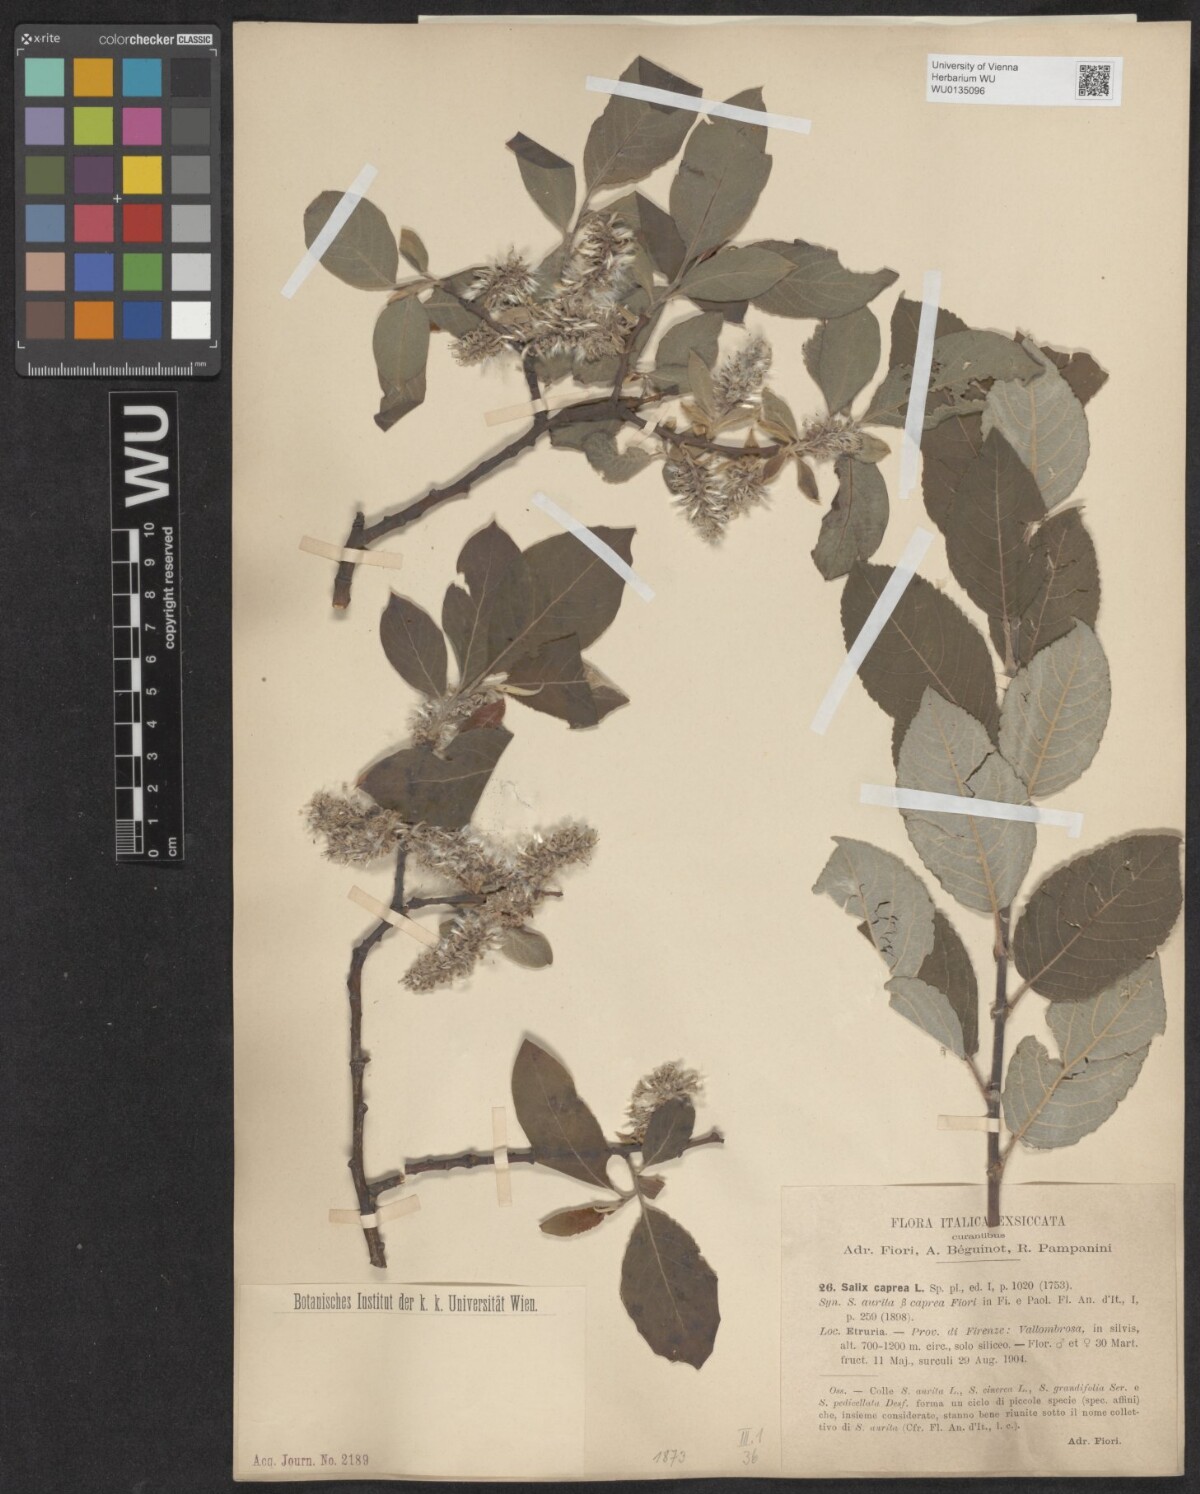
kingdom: Plantae
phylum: Tracheophyta
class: Magnoliopsida
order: Malpighiales
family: Salicaceae
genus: Salix
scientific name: Salix caprea
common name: Goat willow
